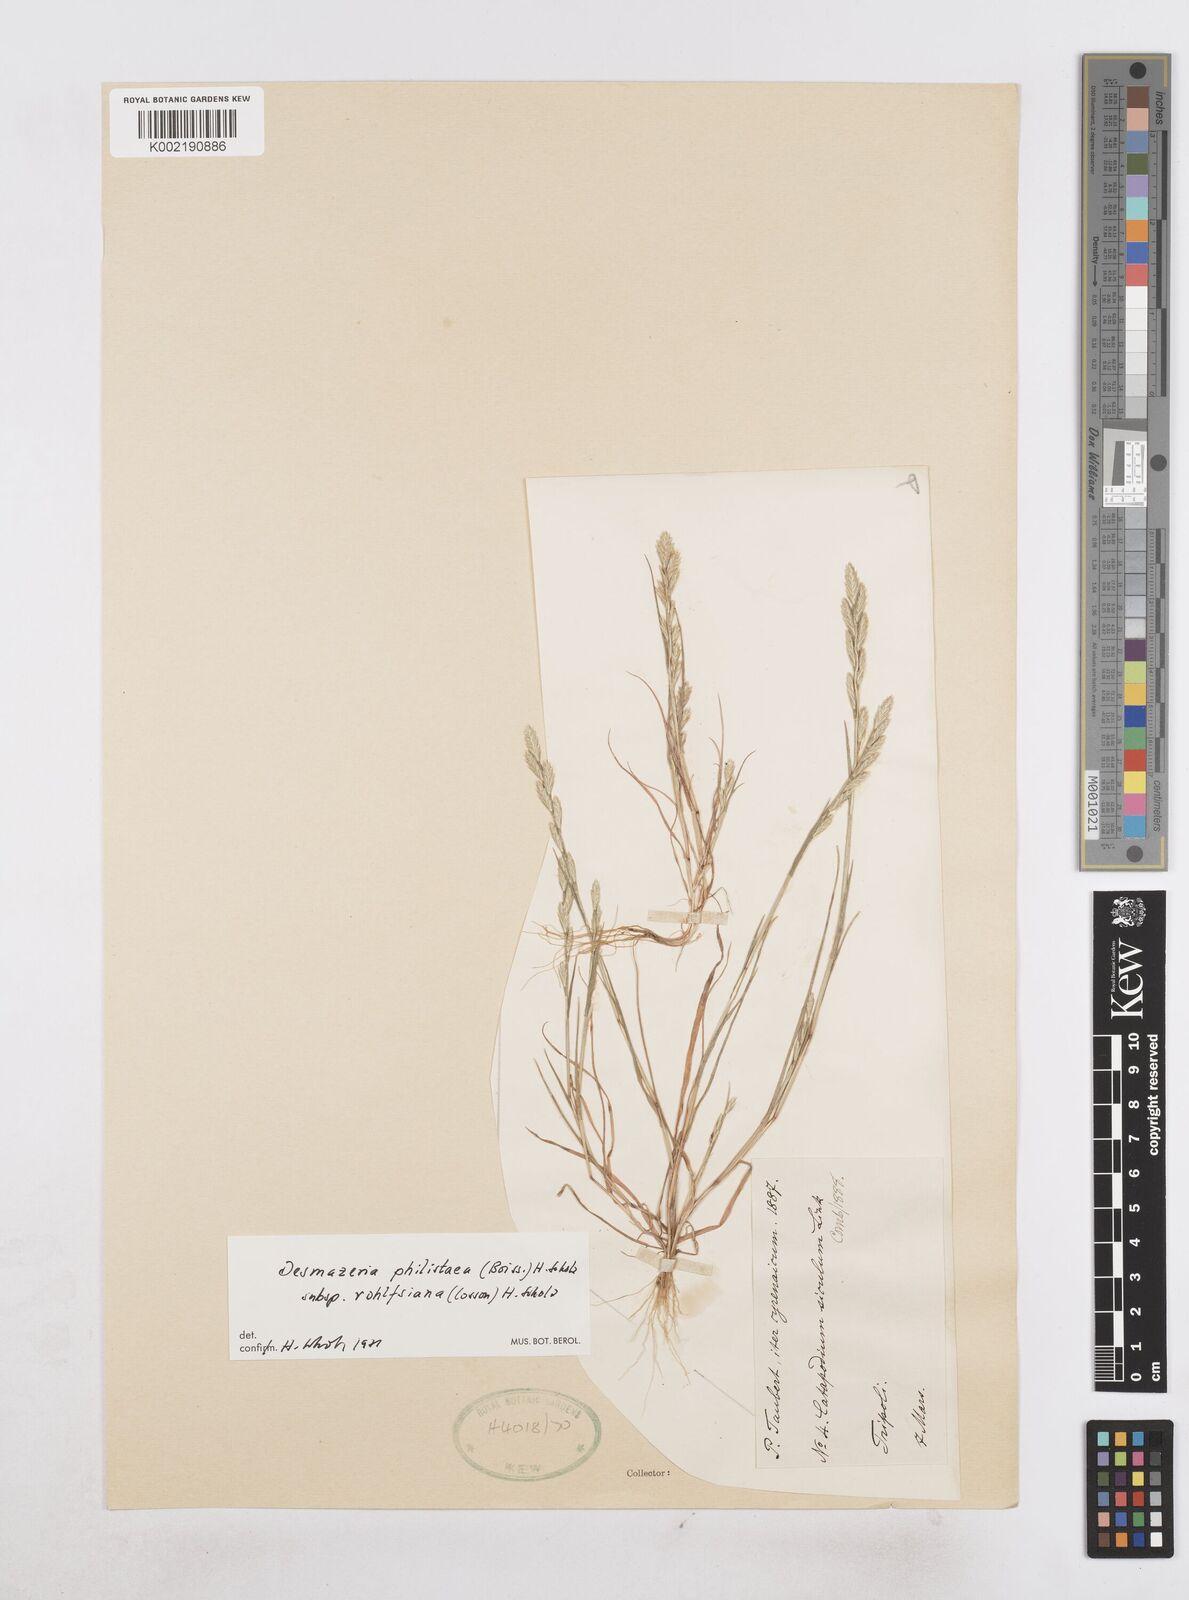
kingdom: Plantae
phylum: Tracheophyta
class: Liliopsida
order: Poales
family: Poaceae
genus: Desmazeria
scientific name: Desmazeria philistaea
